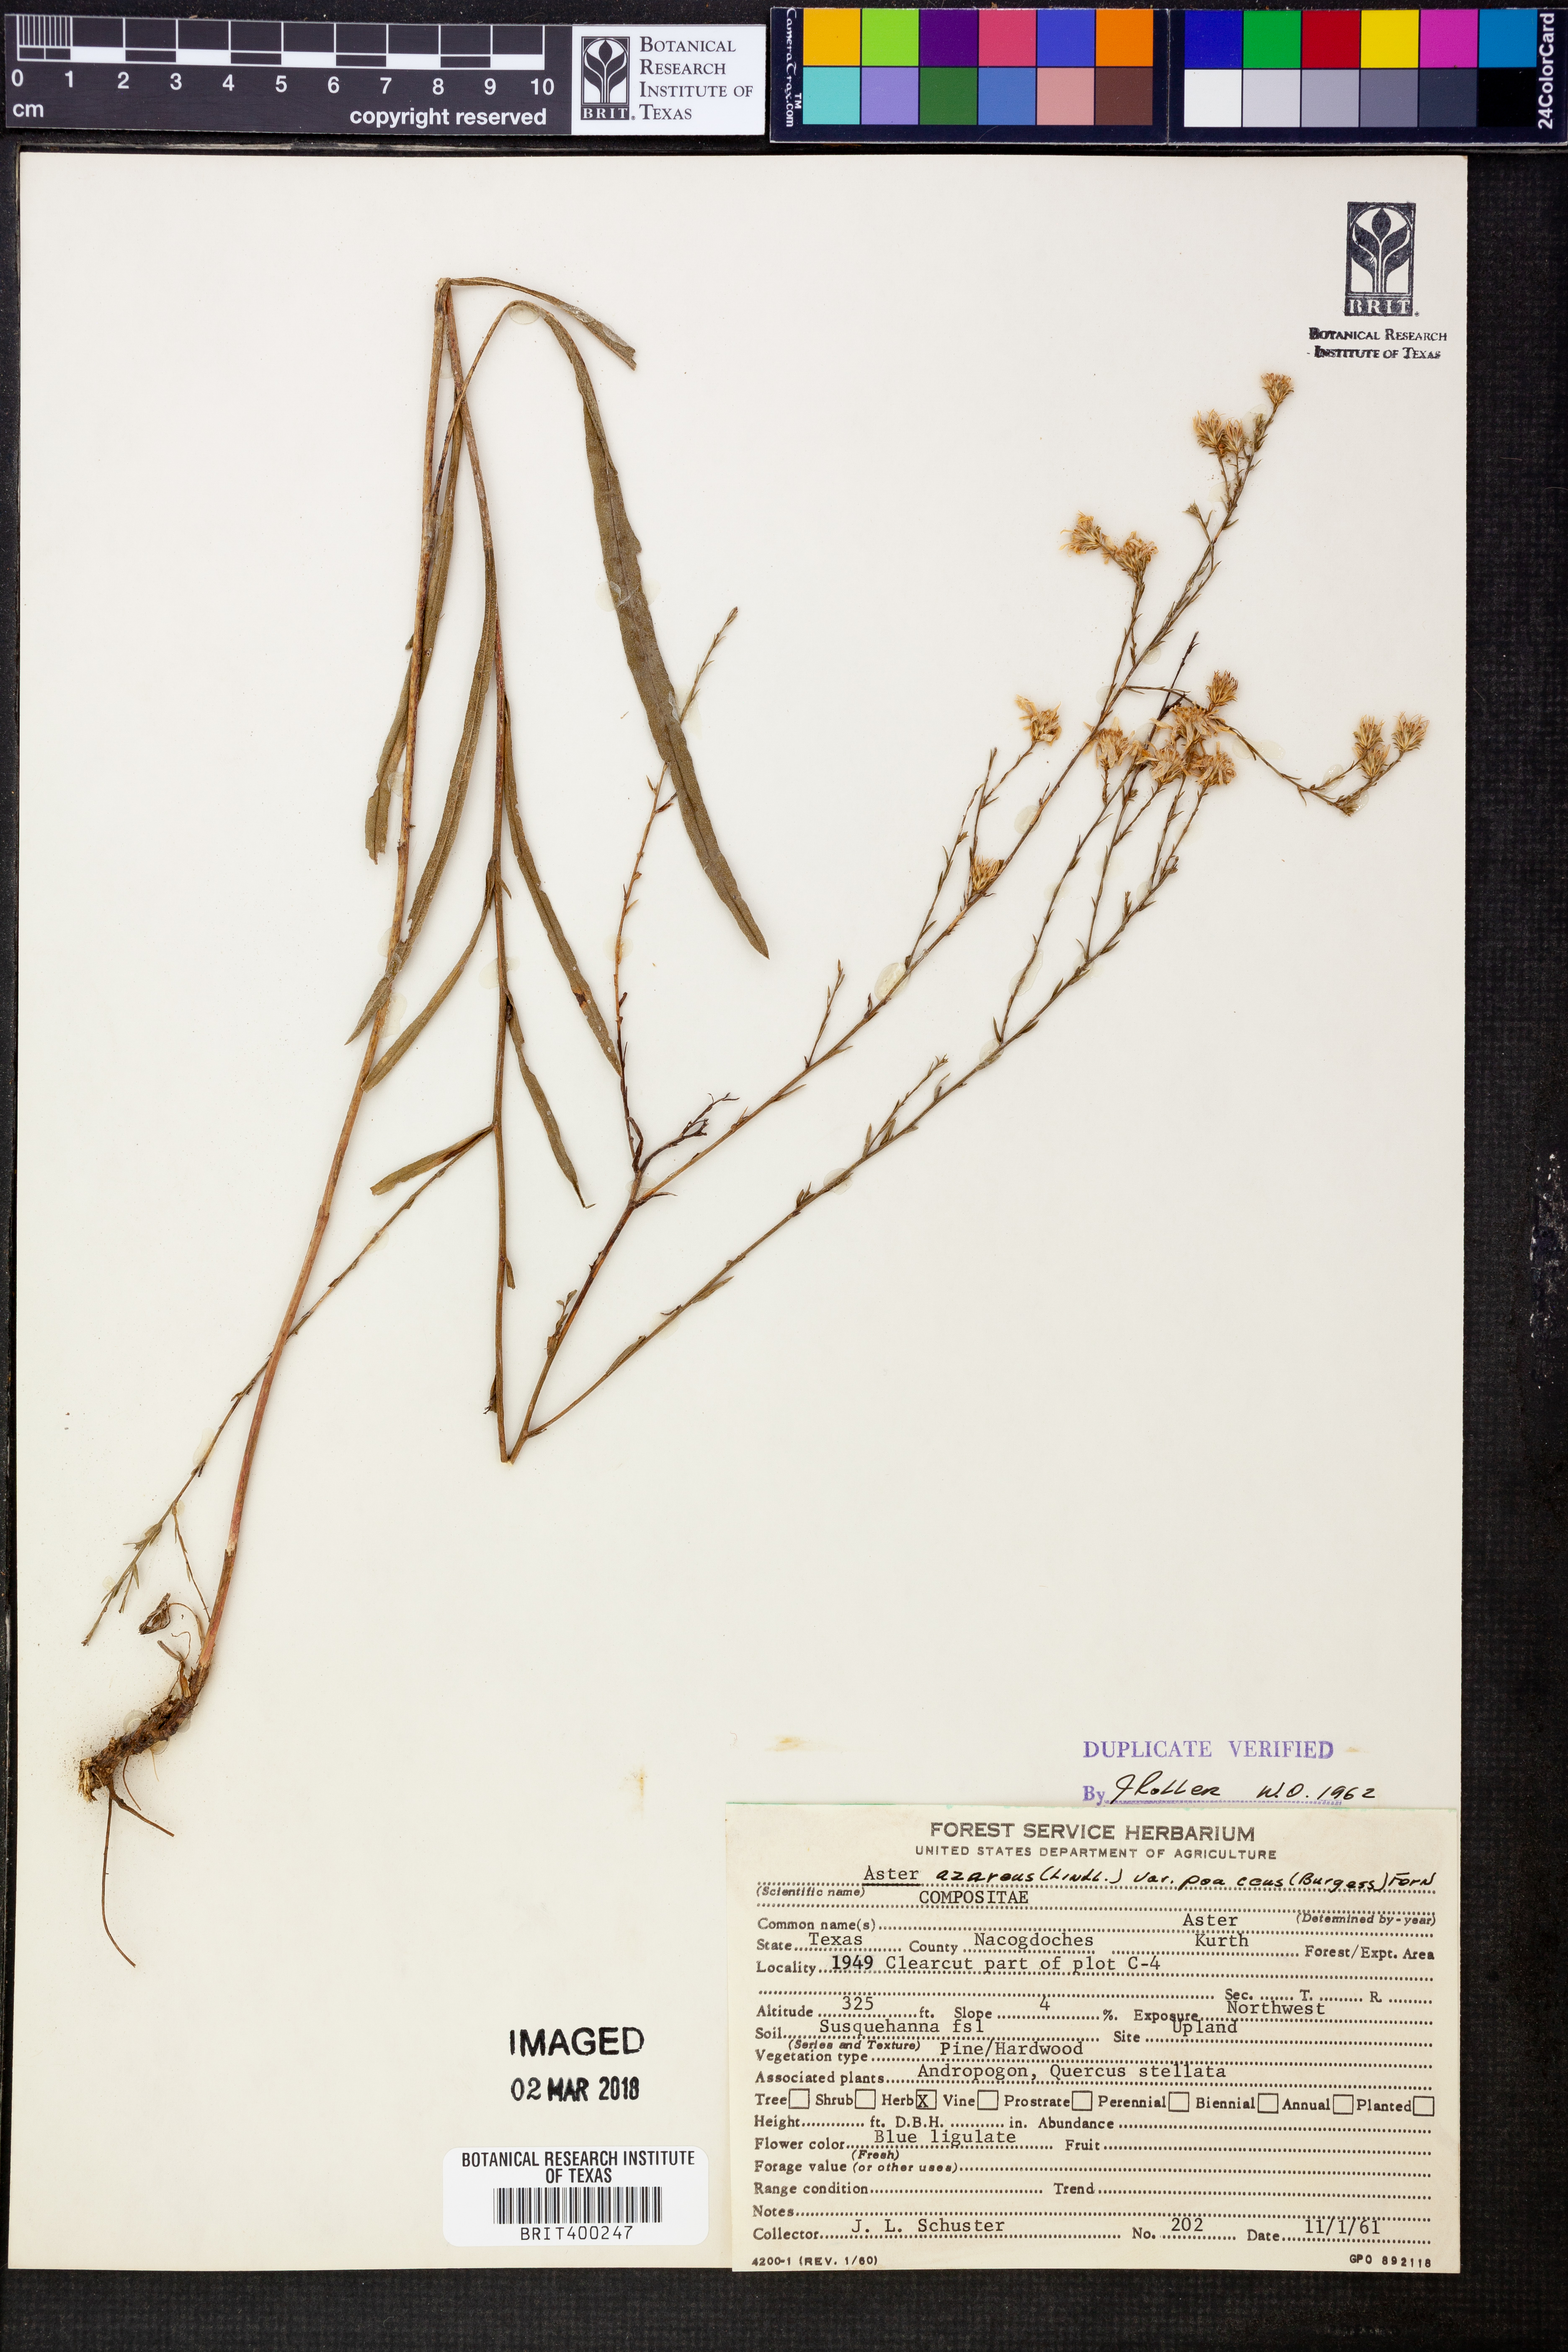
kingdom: Plantae
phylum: Tracheophyta
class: Magnoliopsida
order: Asterales
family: Asteraceae
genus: Symphyotrichum
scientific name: Symphyotrichum oolentangiense
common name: Azure aster
